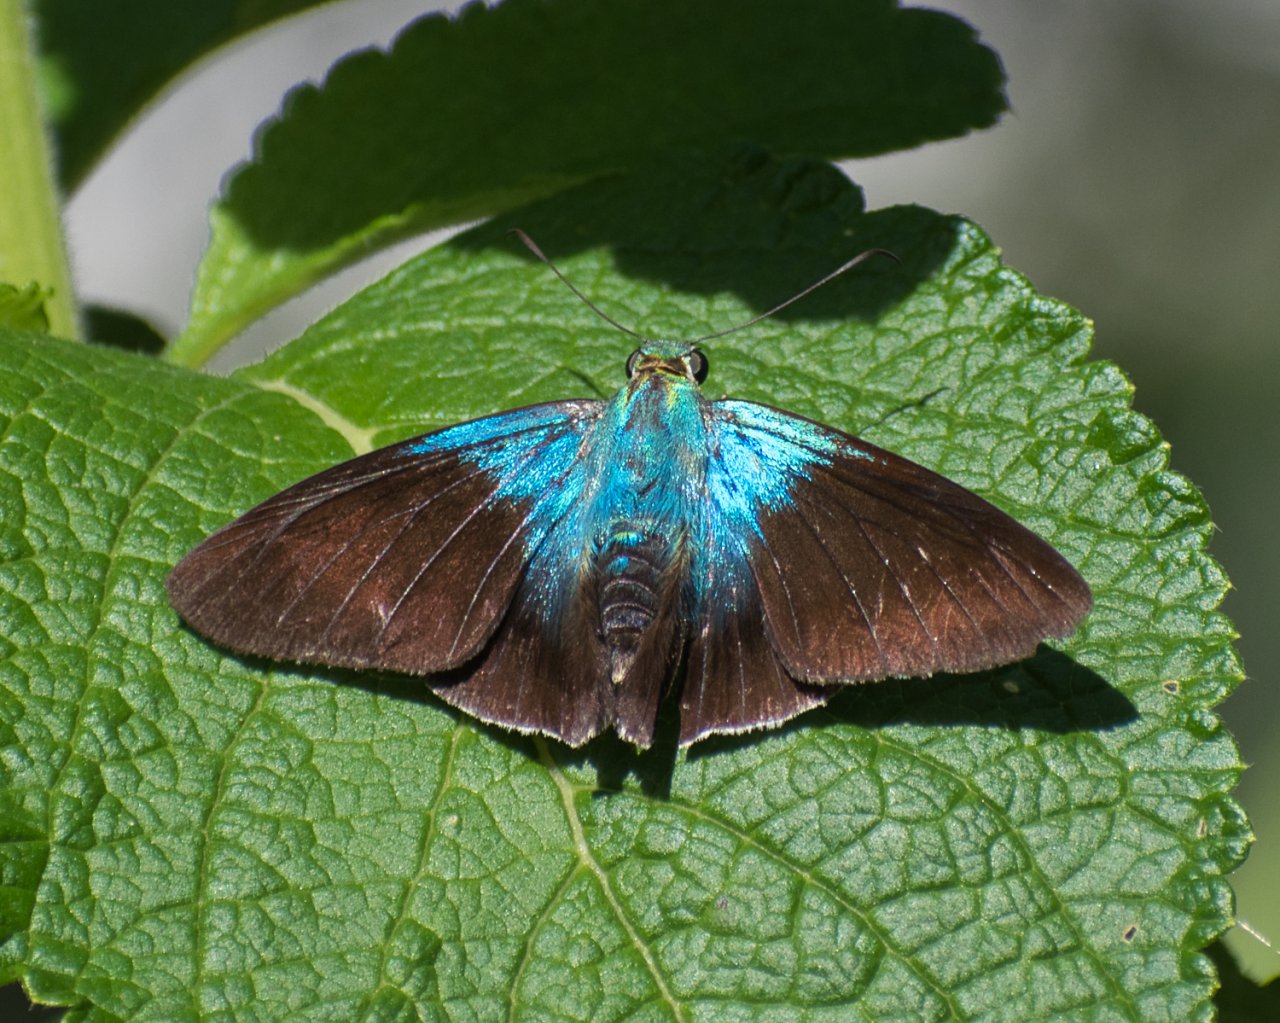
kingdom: Animalia
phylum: Arthropoda
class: Insecta
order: Lepidoptera
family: Hesperiidae
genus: Astraptes
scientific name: Astraptes alardus
